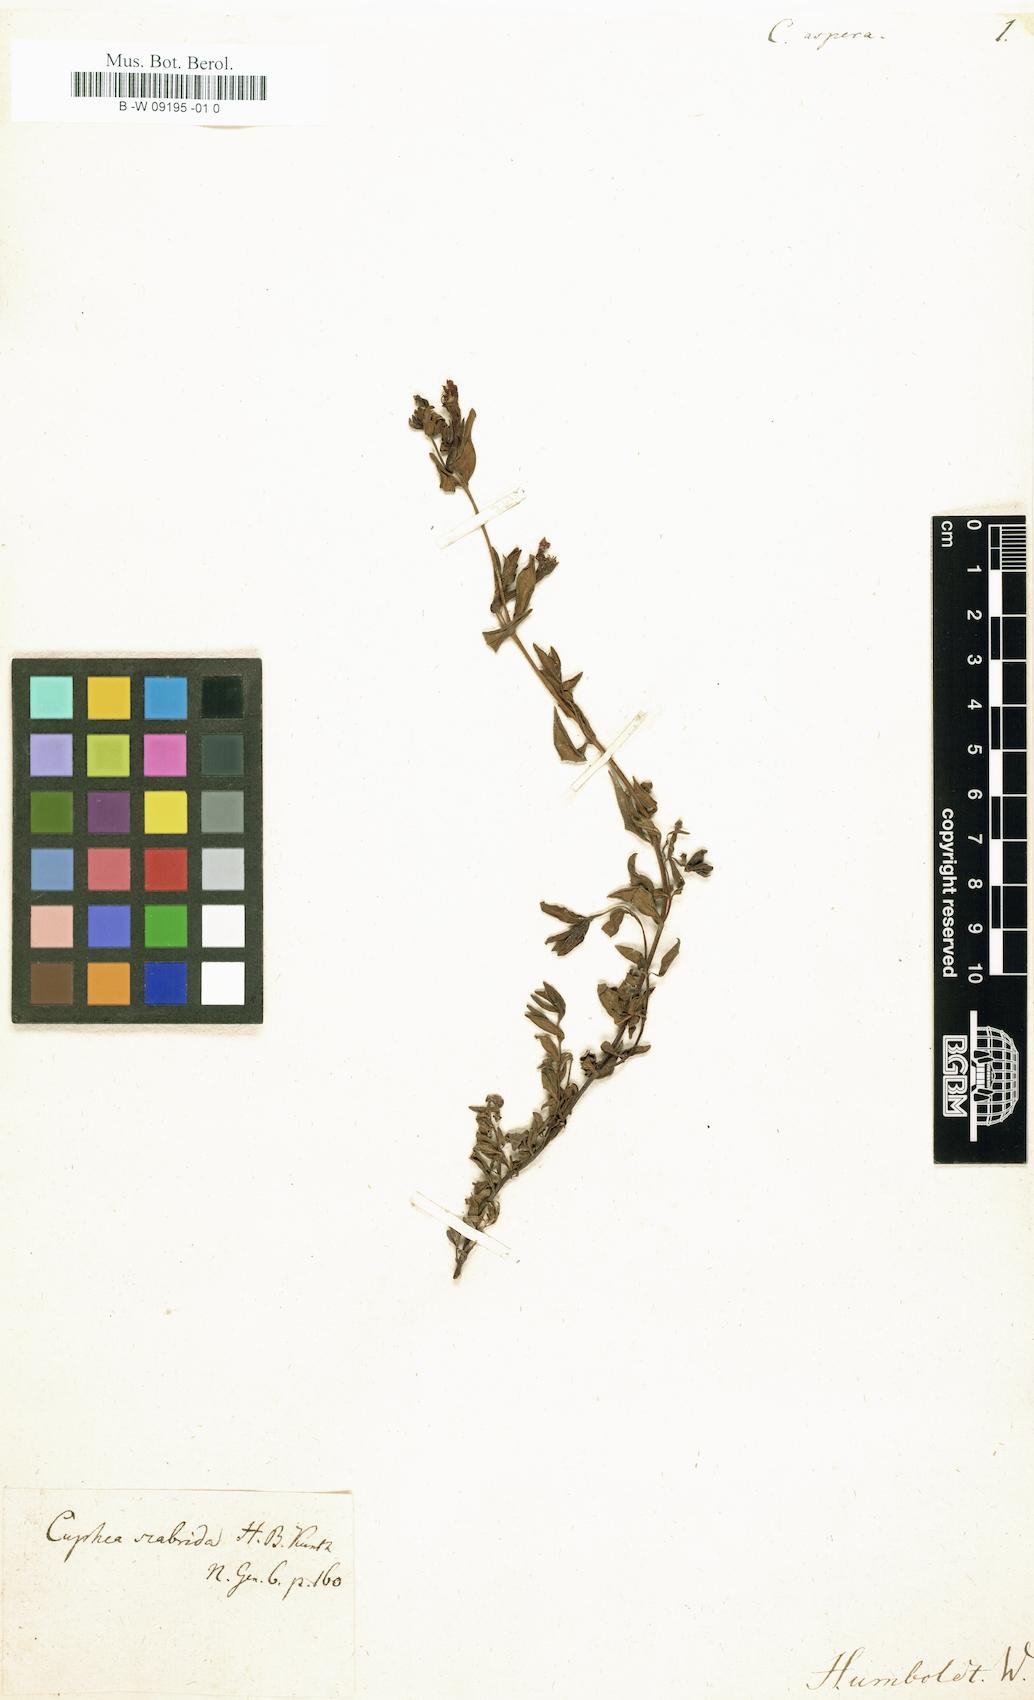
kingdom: Plantae
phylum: Tracheophyta
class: Magnoliopsida
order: Myrtales
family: Lythraceae
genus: Cuphea
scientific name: Cuphea aspera
